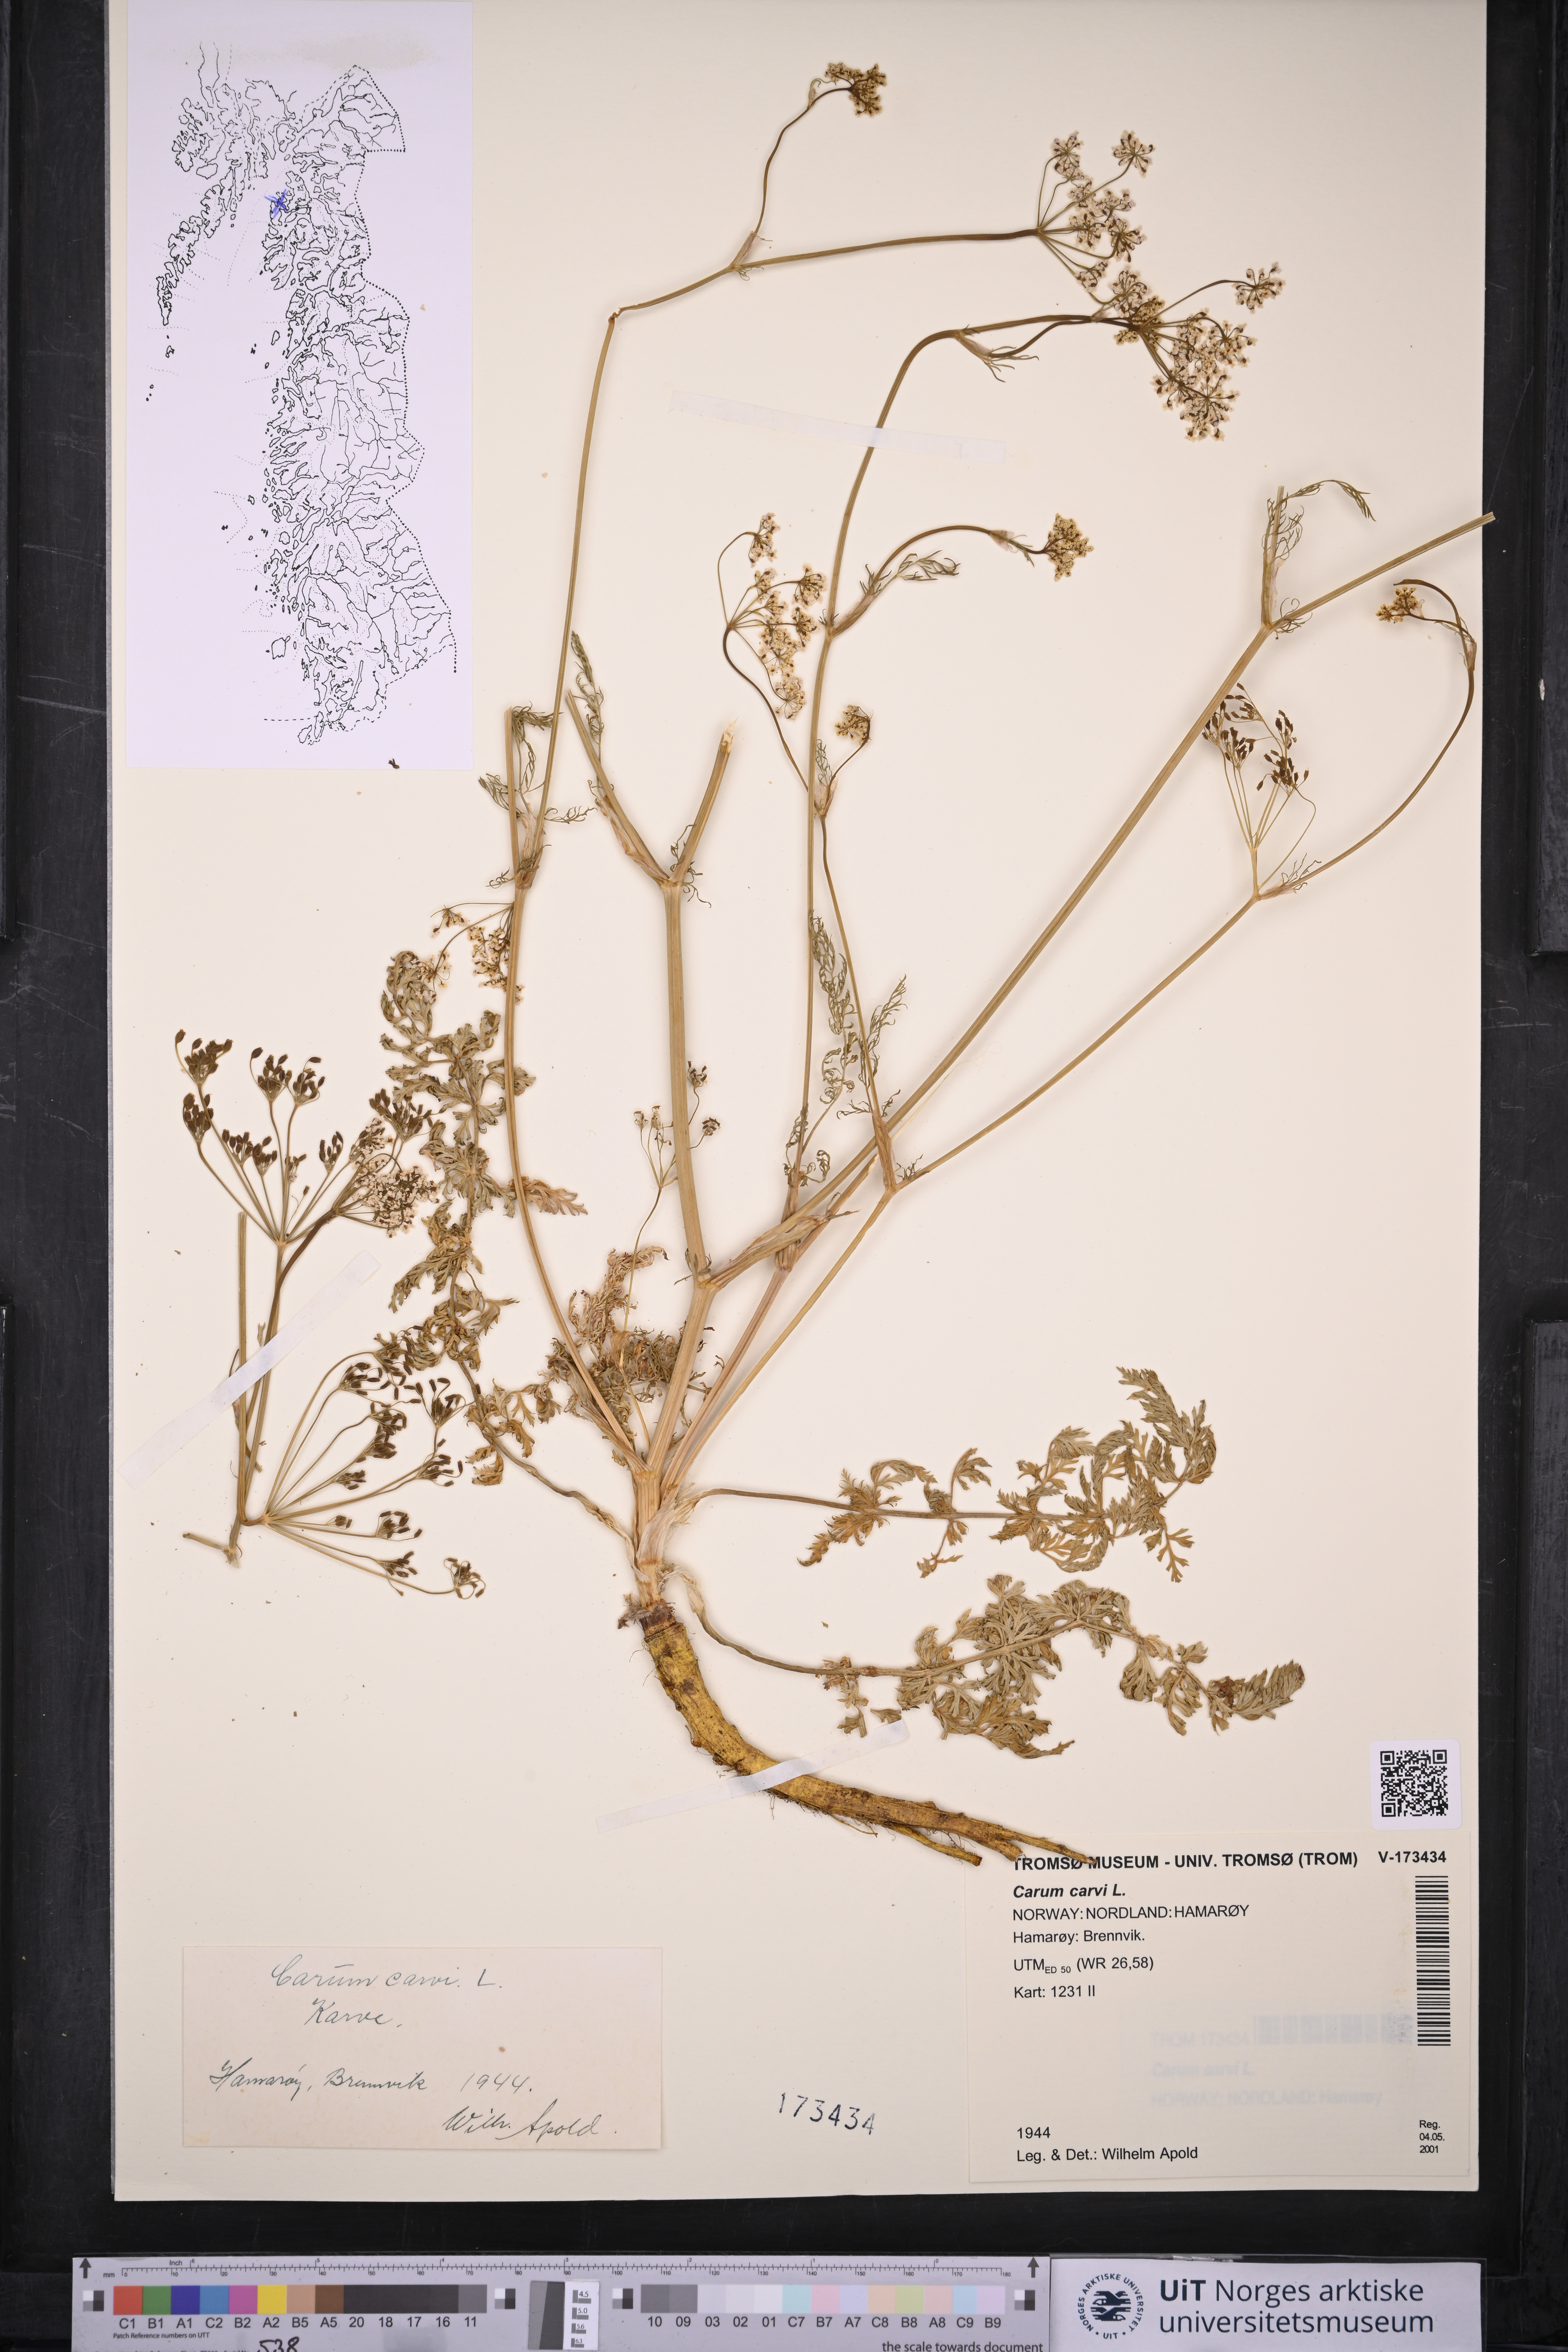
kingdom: Plantae
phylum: Tracheophyta
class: Magnoliopsida
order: Apiales
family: Apiaceae
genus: Carum
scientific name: Carum carvi
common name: Caraway
